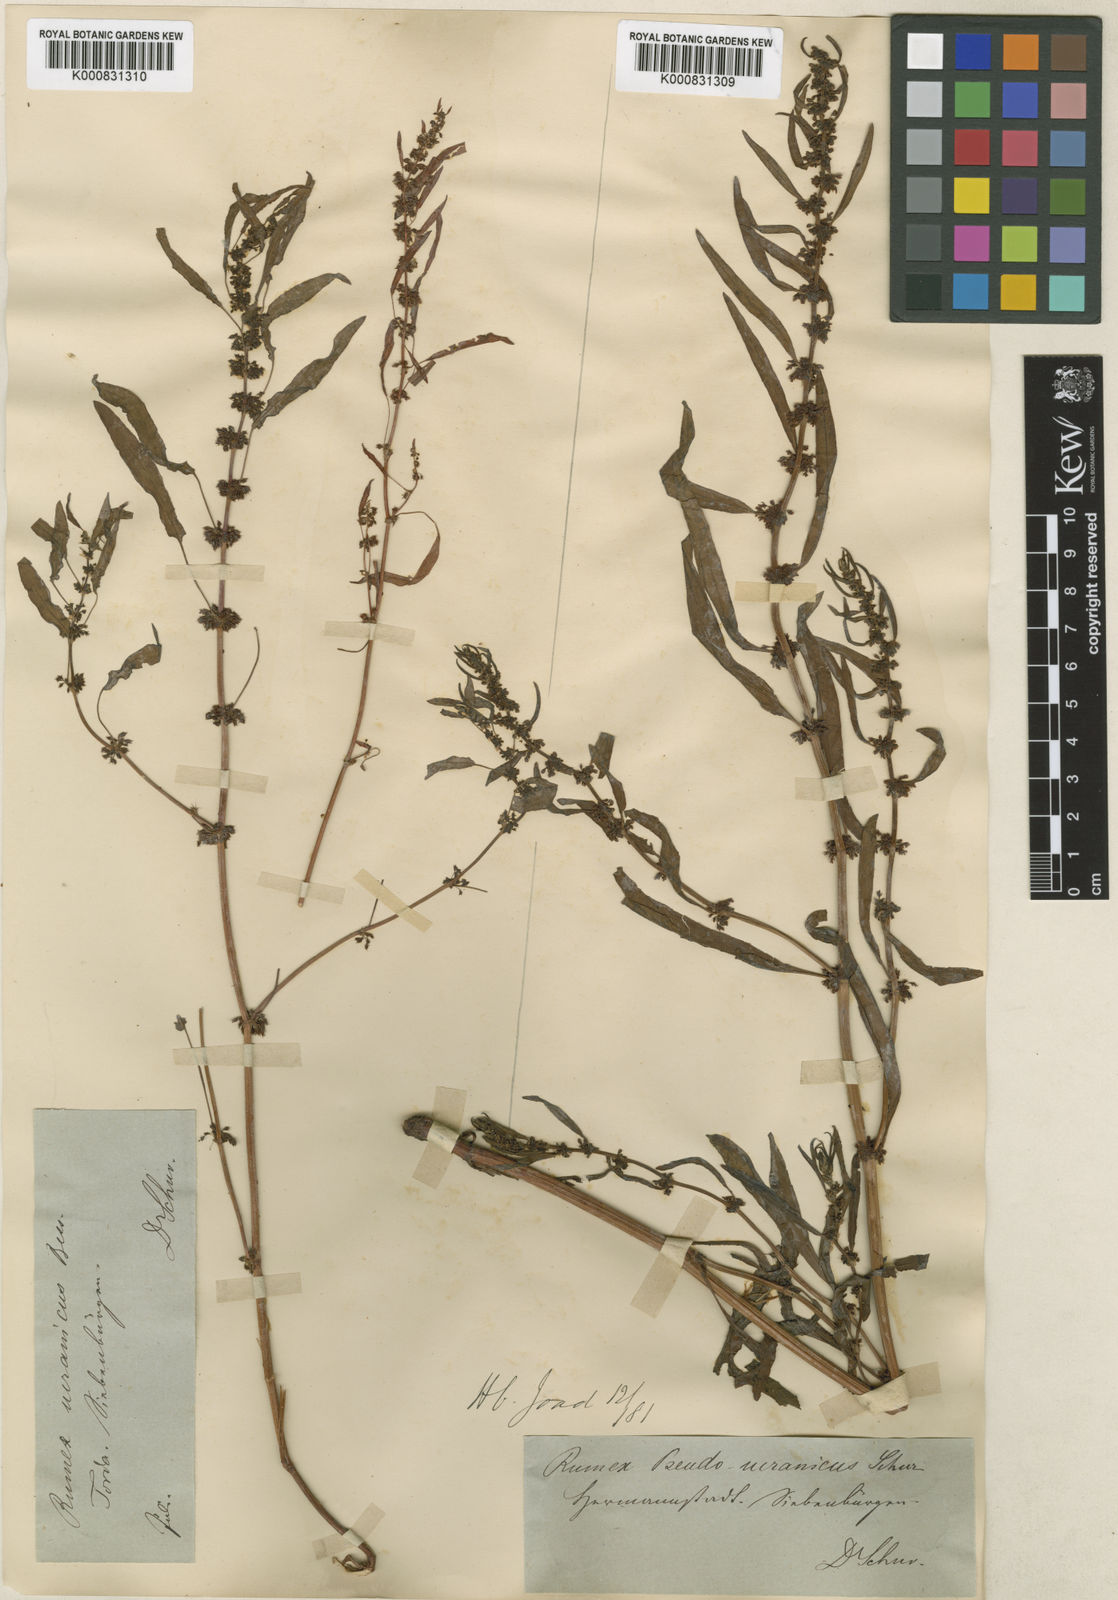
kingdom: Plantae
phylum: Tracheophyta
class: Magnoliopsida
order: Caryophyllales
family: Polygonaceae
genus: Rumex
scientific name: Rumex
